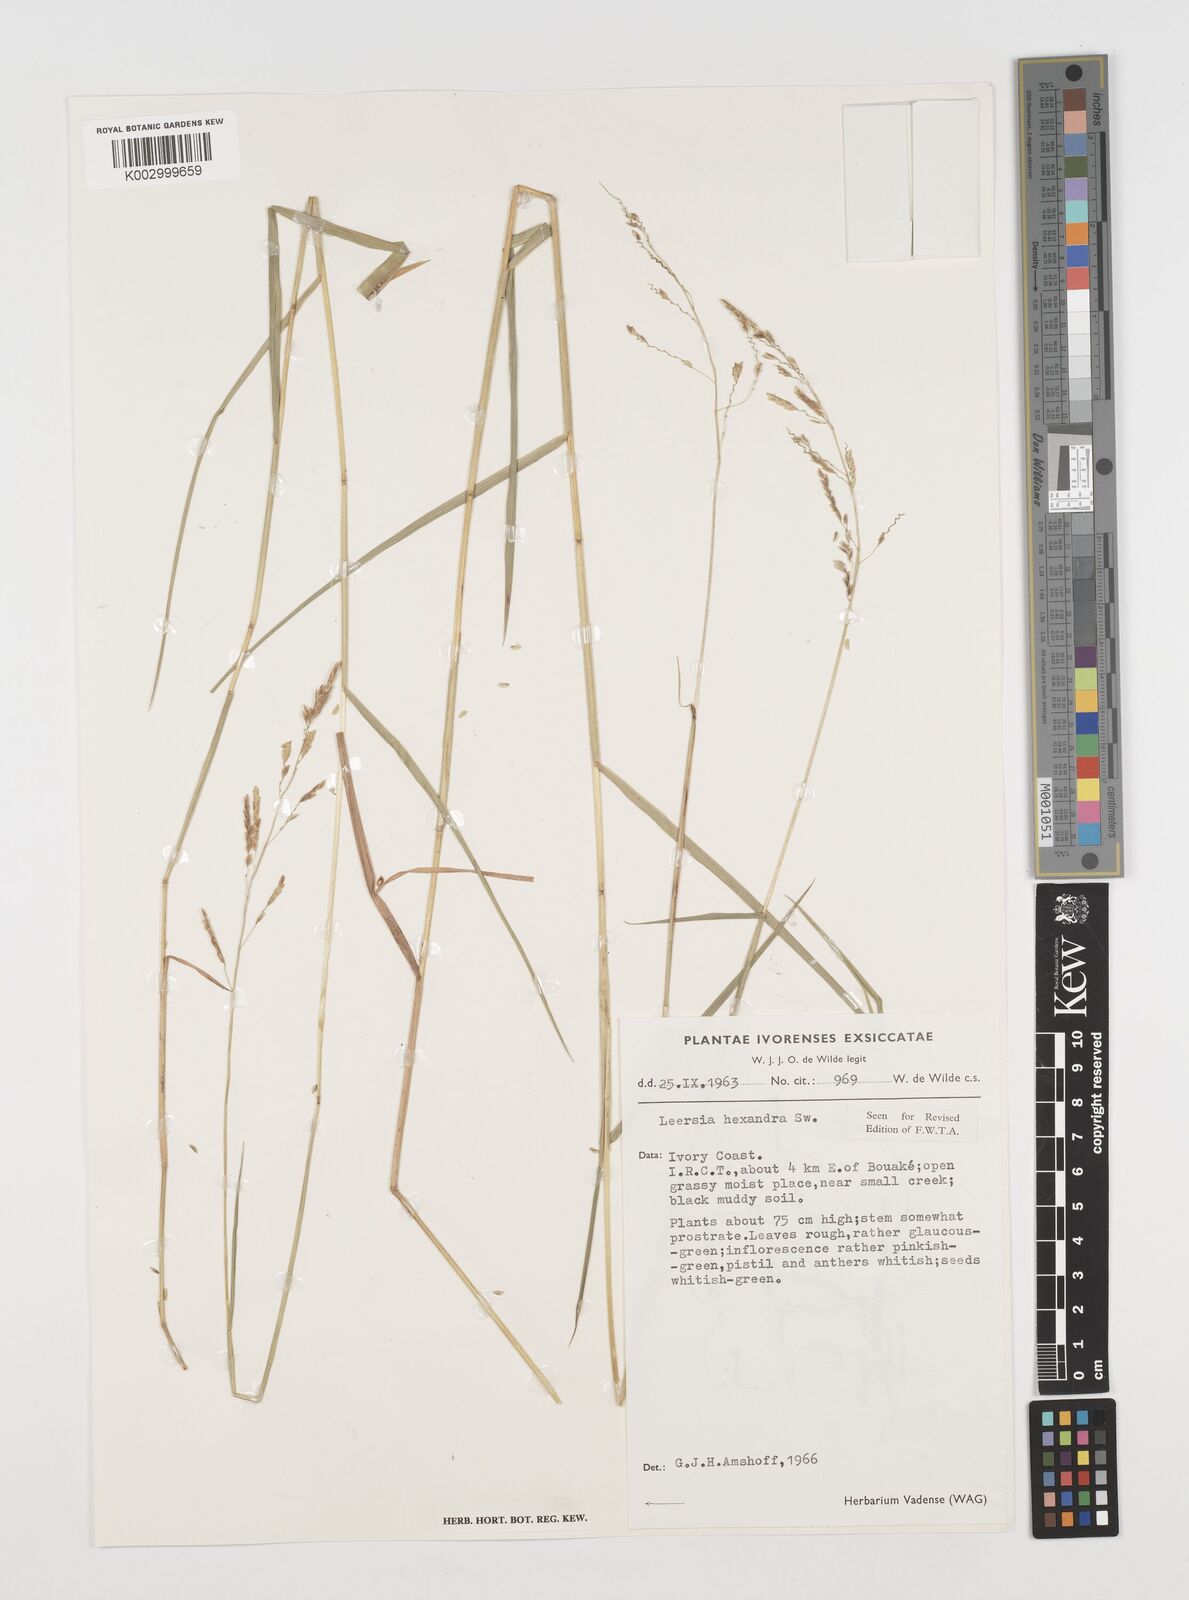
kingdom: Plantae
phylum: Tracheophyta
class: Liliopsida
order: Poales
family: Poaceae
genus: Leersia
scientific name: Leersia hexandra
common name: Southern cut grass
